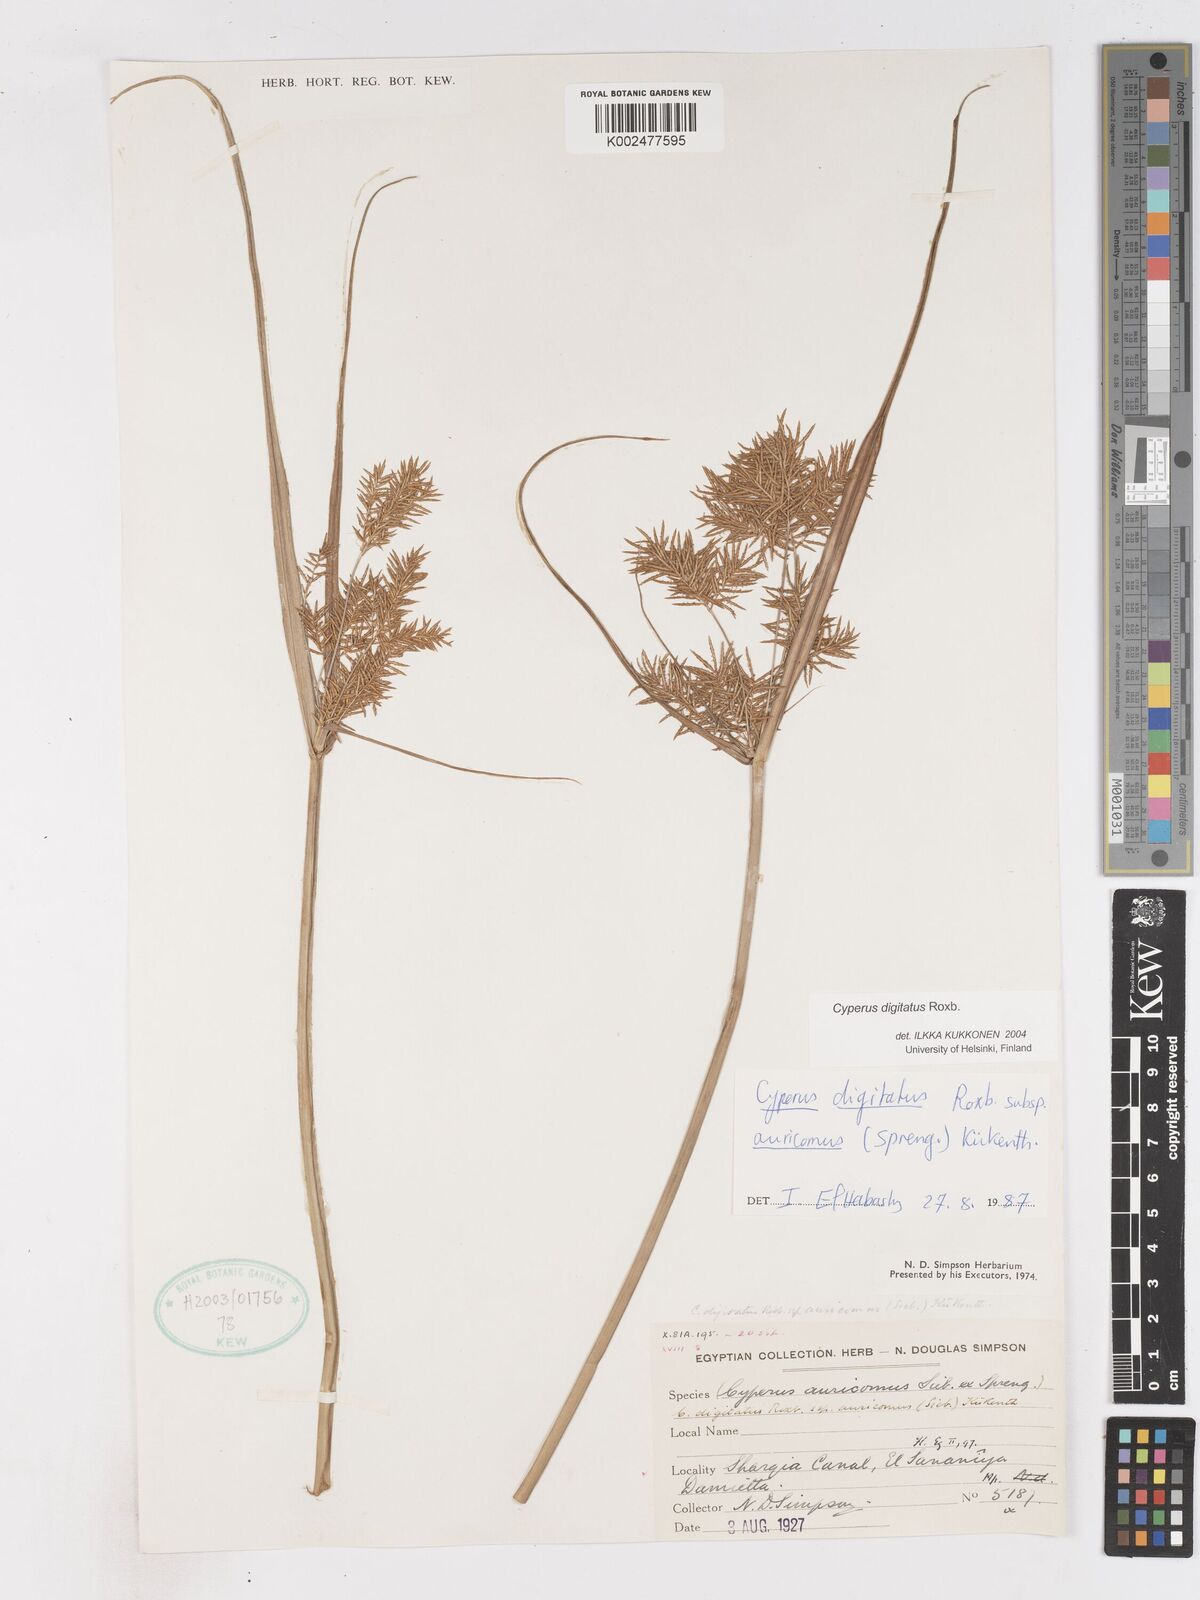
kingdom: Plantae
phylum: Tracheophyta
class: Liliopsida
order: Poales
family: Cyperaceae
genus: Cyperus
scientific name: Cyperus digitatus
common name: Finger flatsedge
